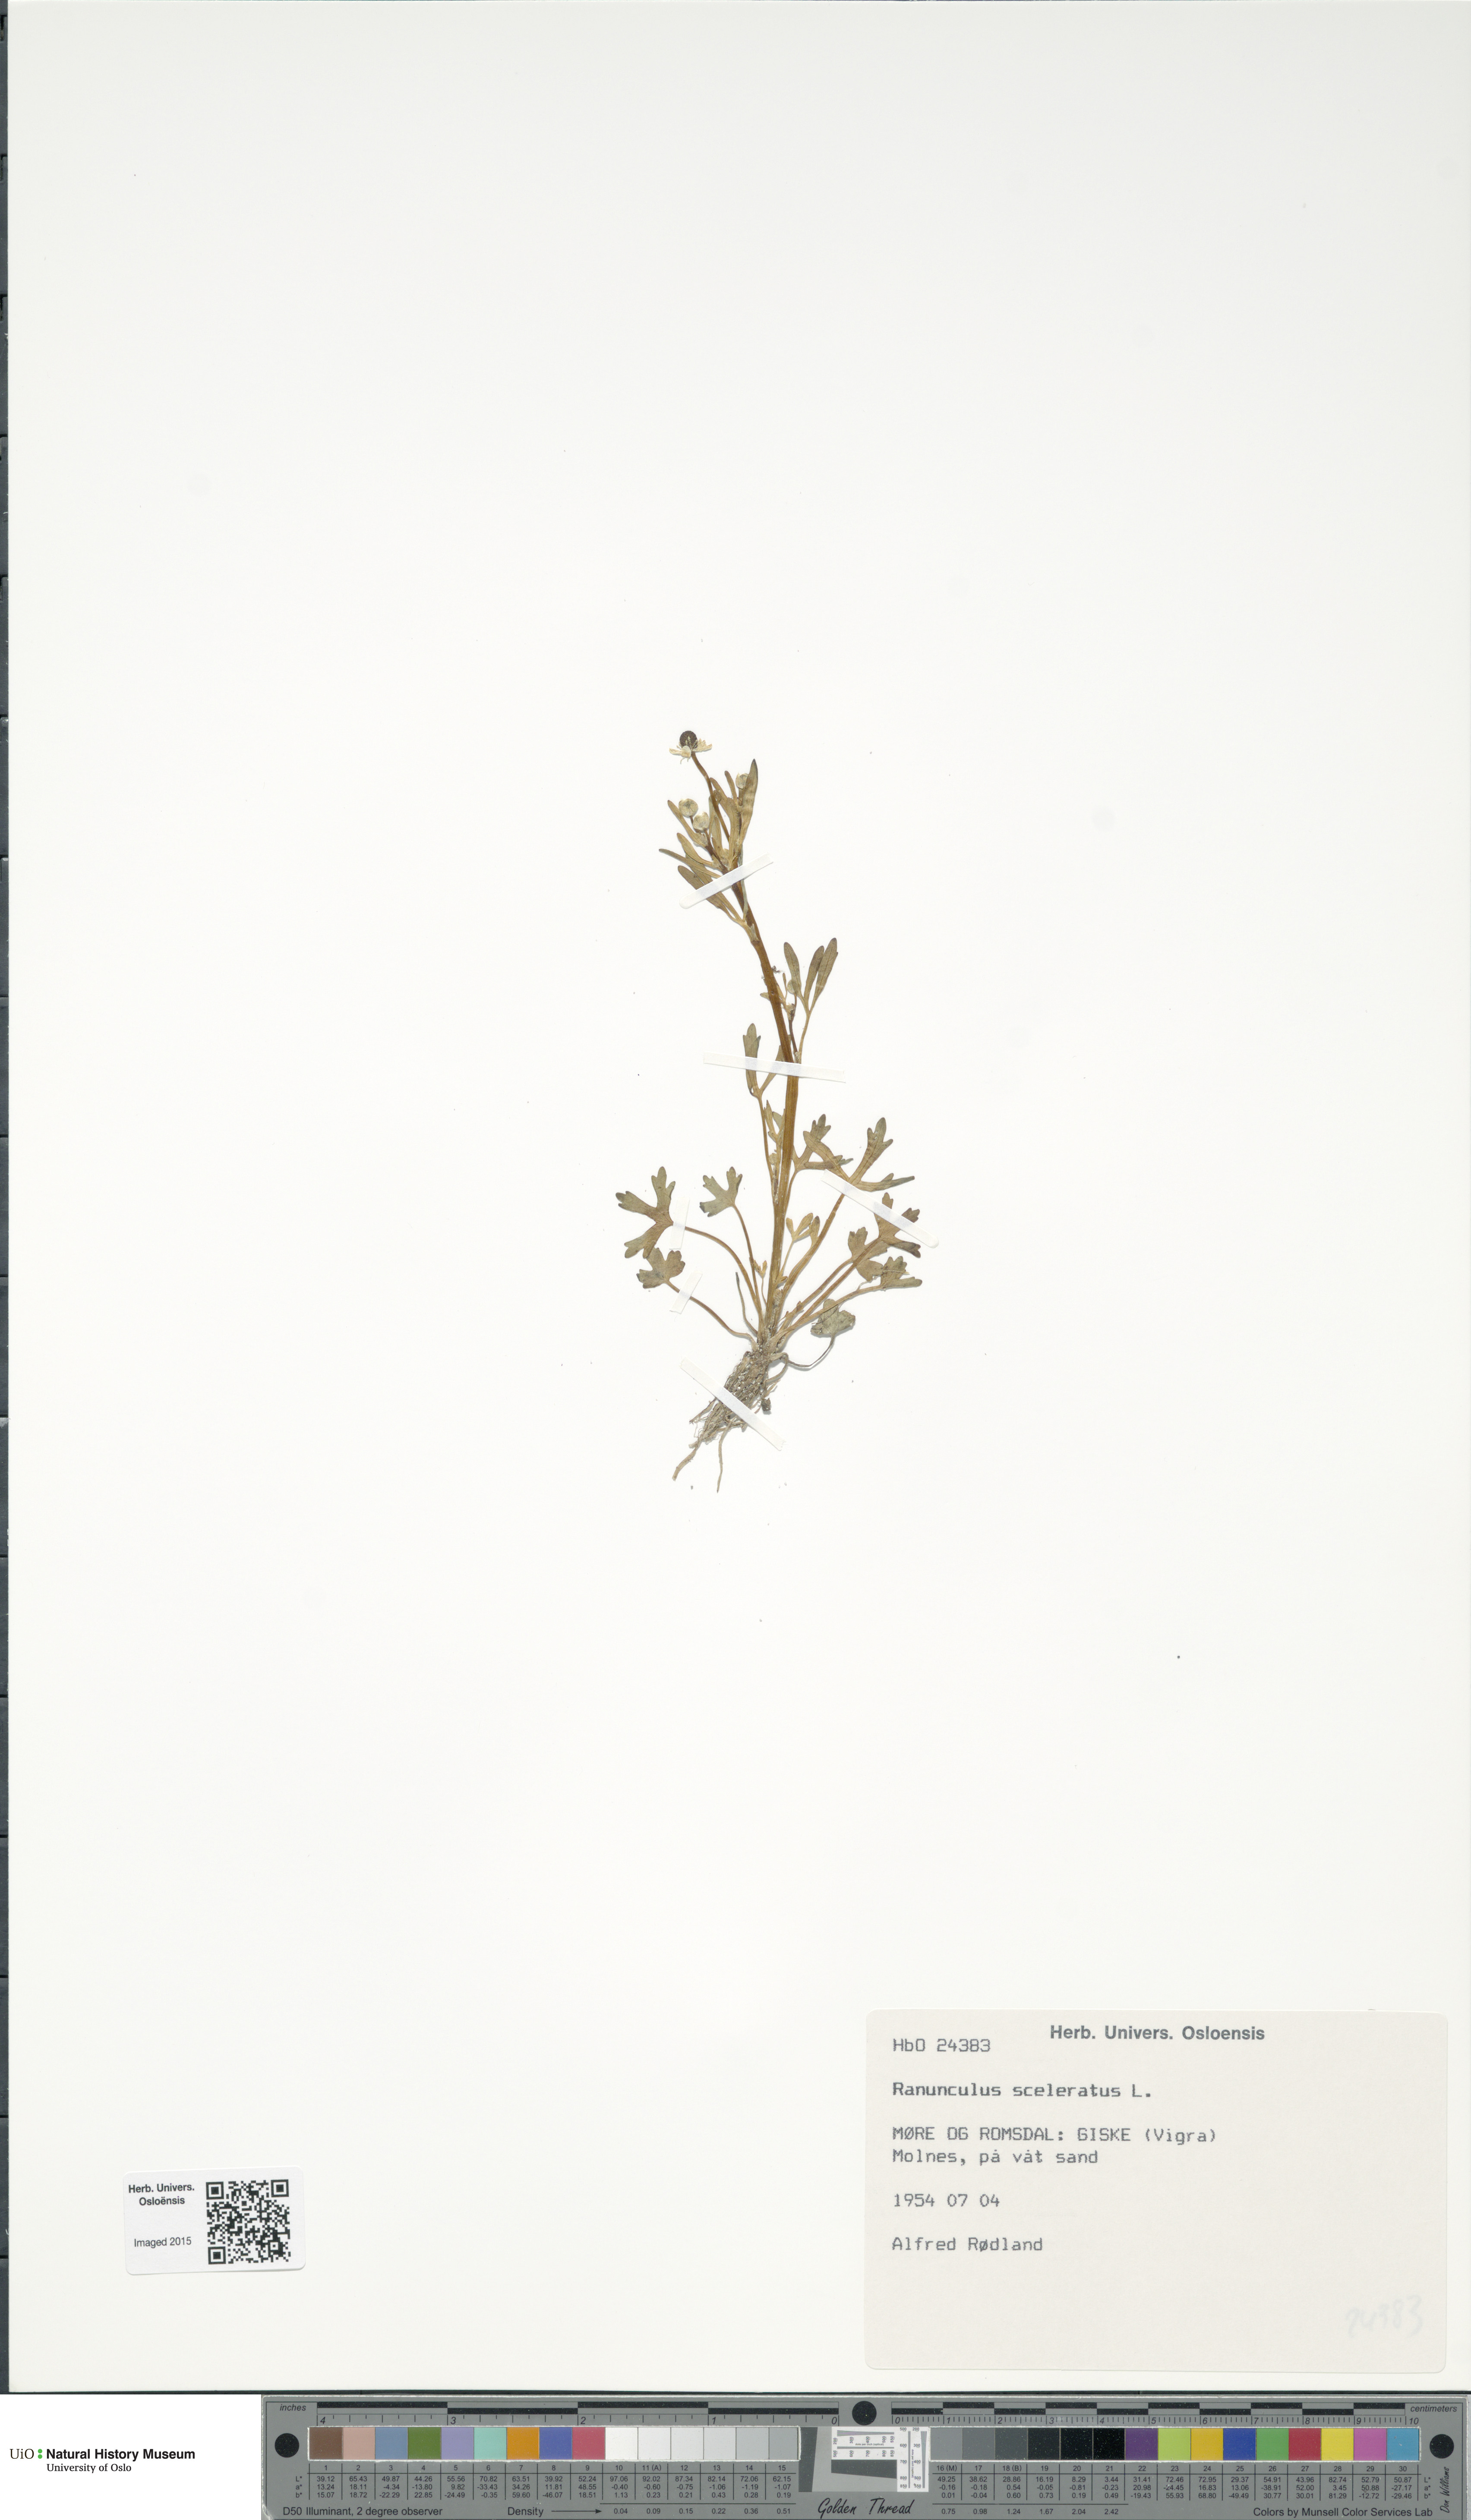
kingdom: Plantae
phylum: Tracheophyta
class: Magnoliopsida
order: Ranunculales
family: Ranunculaceae
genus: Ranunculus
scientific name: Ranunculus sceleratus
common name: Celery-leaved buttercup
